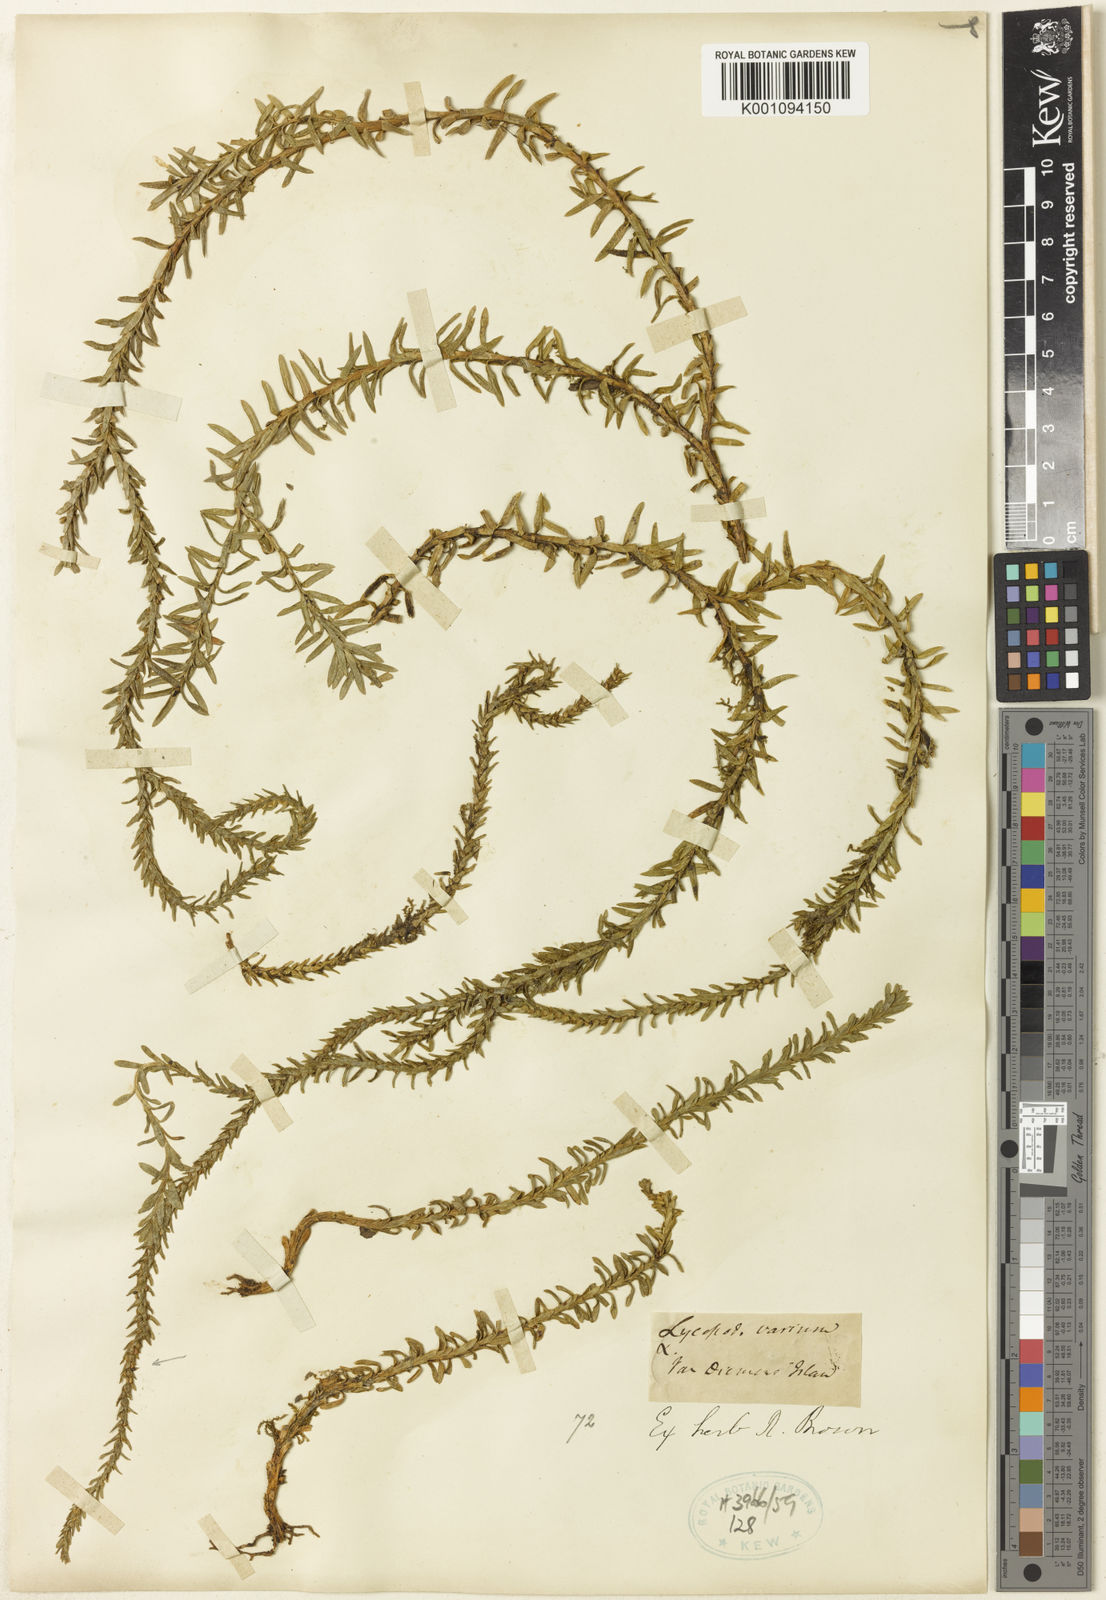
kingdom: Plantae
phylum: Tracheophyta
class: Lycopodiopsida
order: Lycopodiales
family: Lycopodiaceae
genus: Phlegmariurus
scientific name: Phlegmariurus myrtifolius
